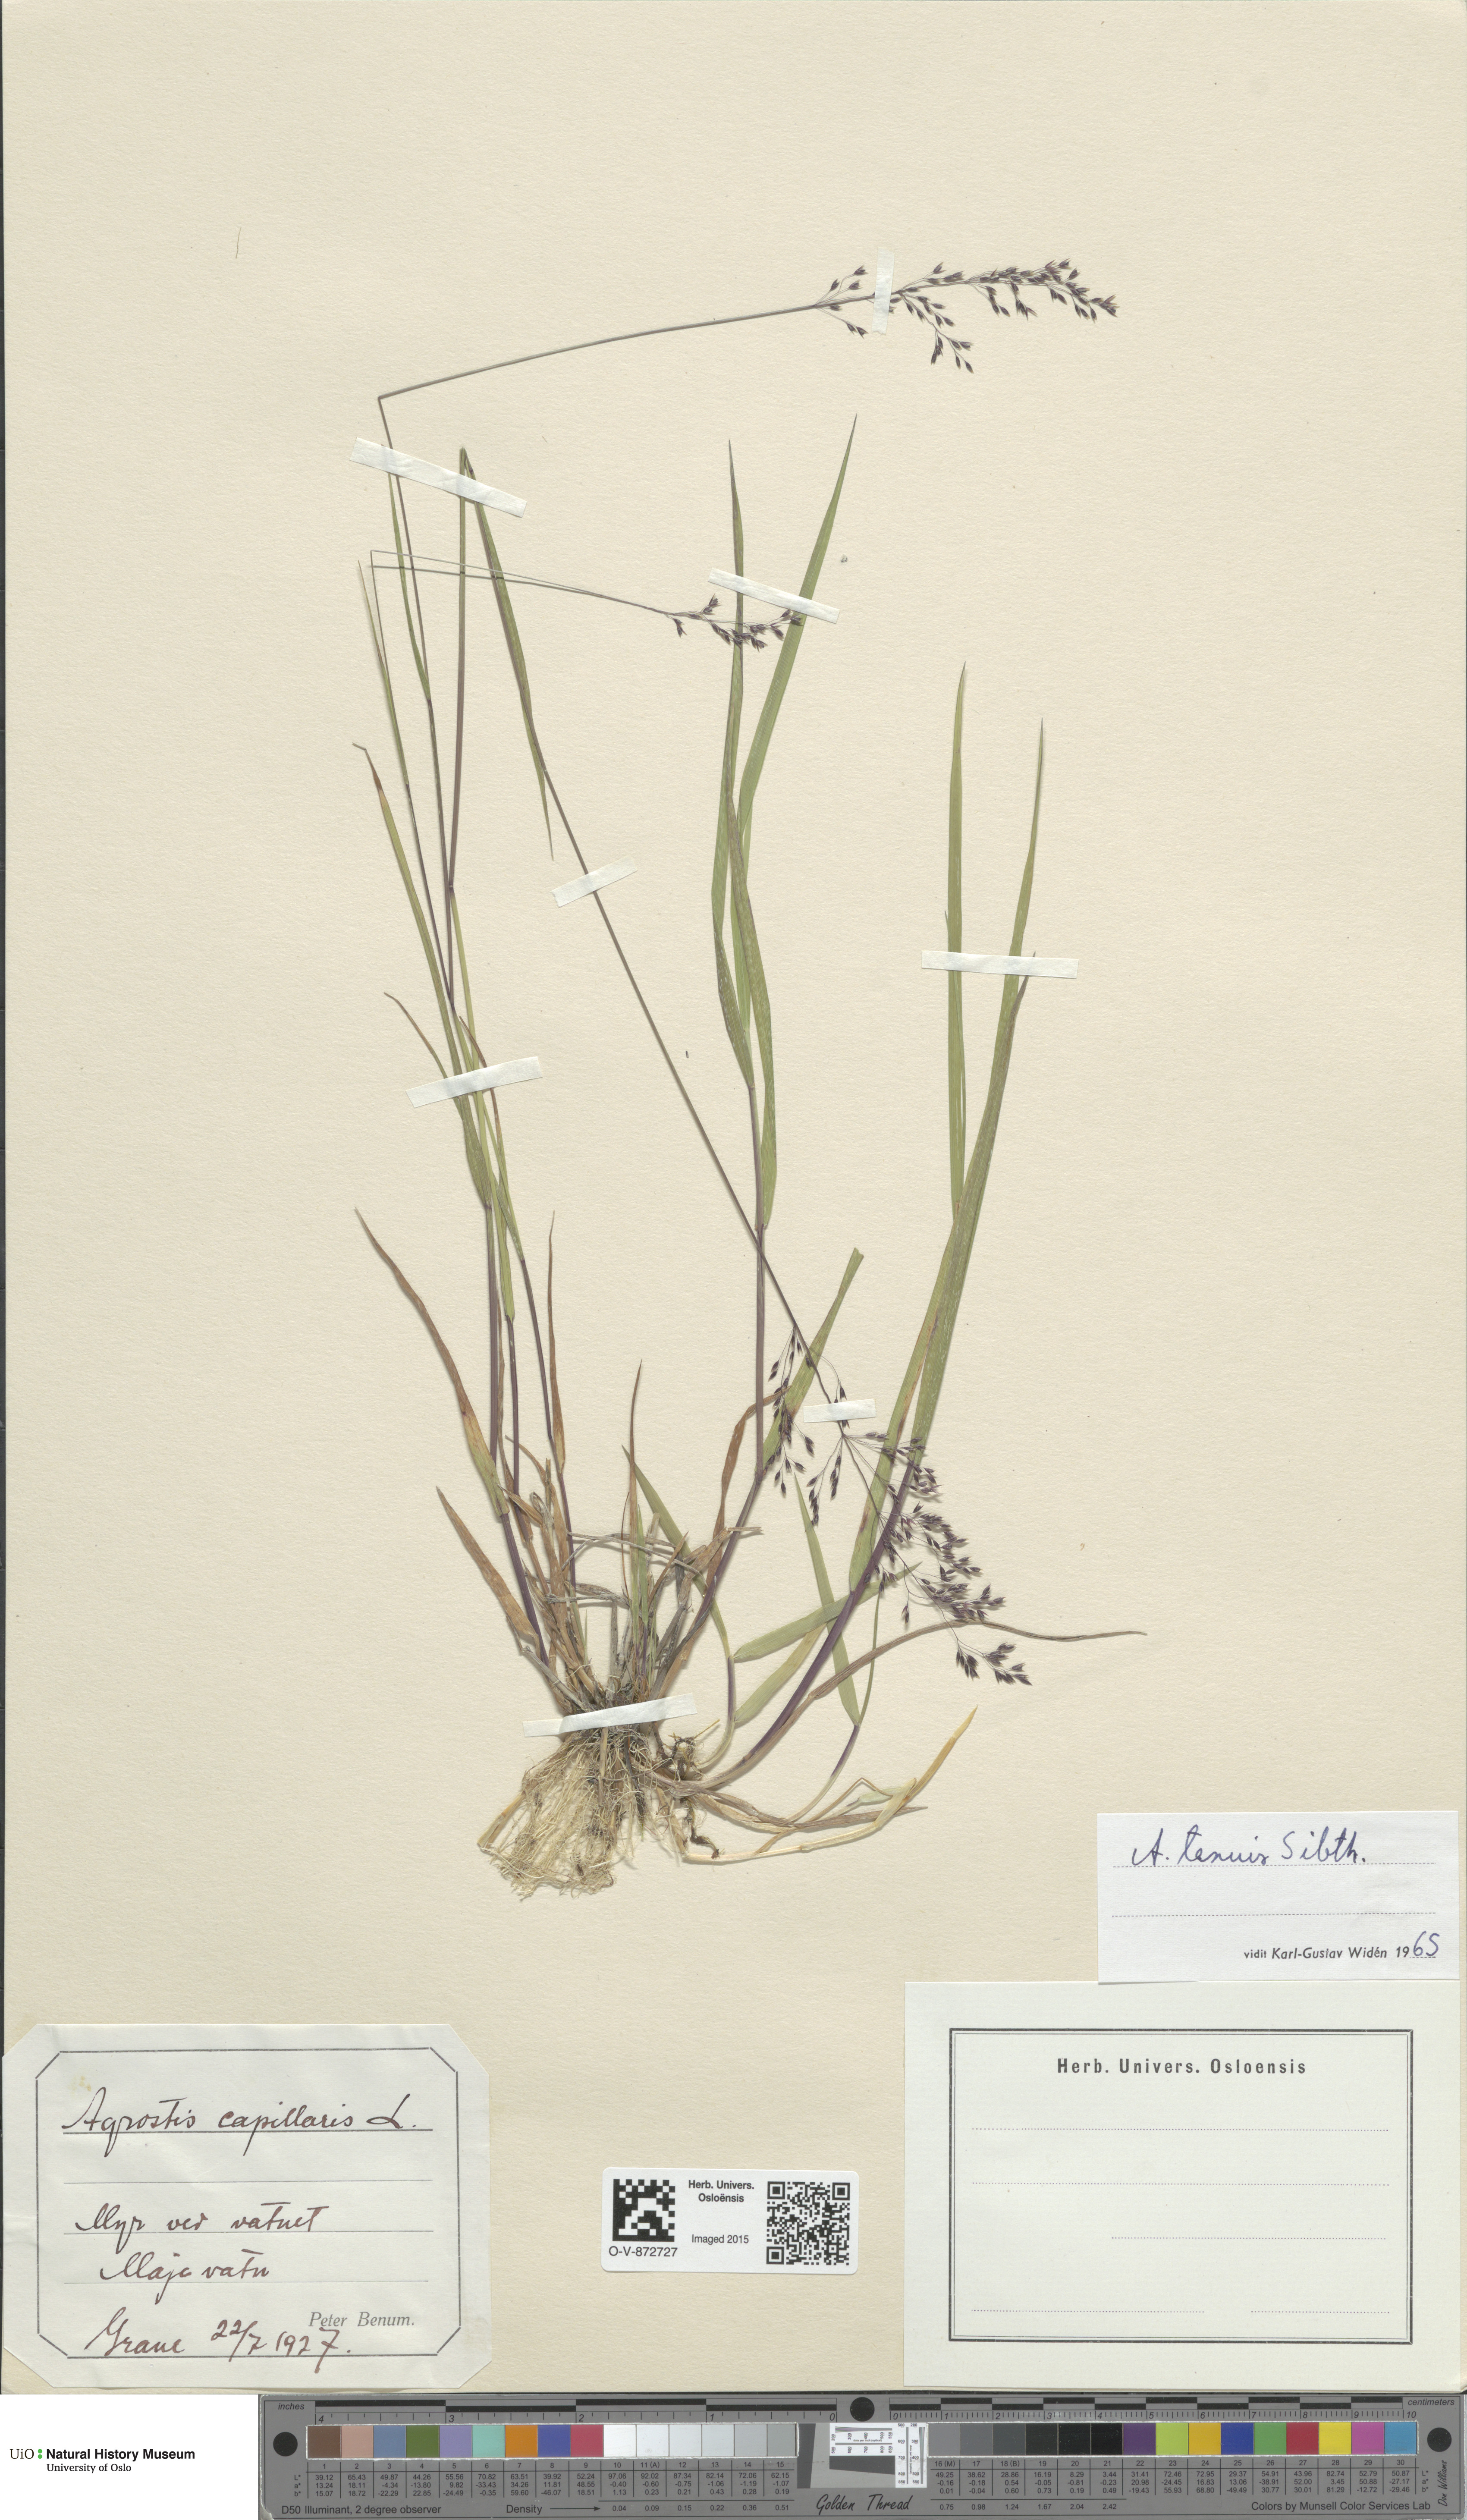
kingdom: Plantae
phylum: Tracheophyta
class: Liliopsida
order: Poales
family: Poaceae
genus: Agrostis
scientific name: Agrostis capillaris
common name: Colonial bentgrass
